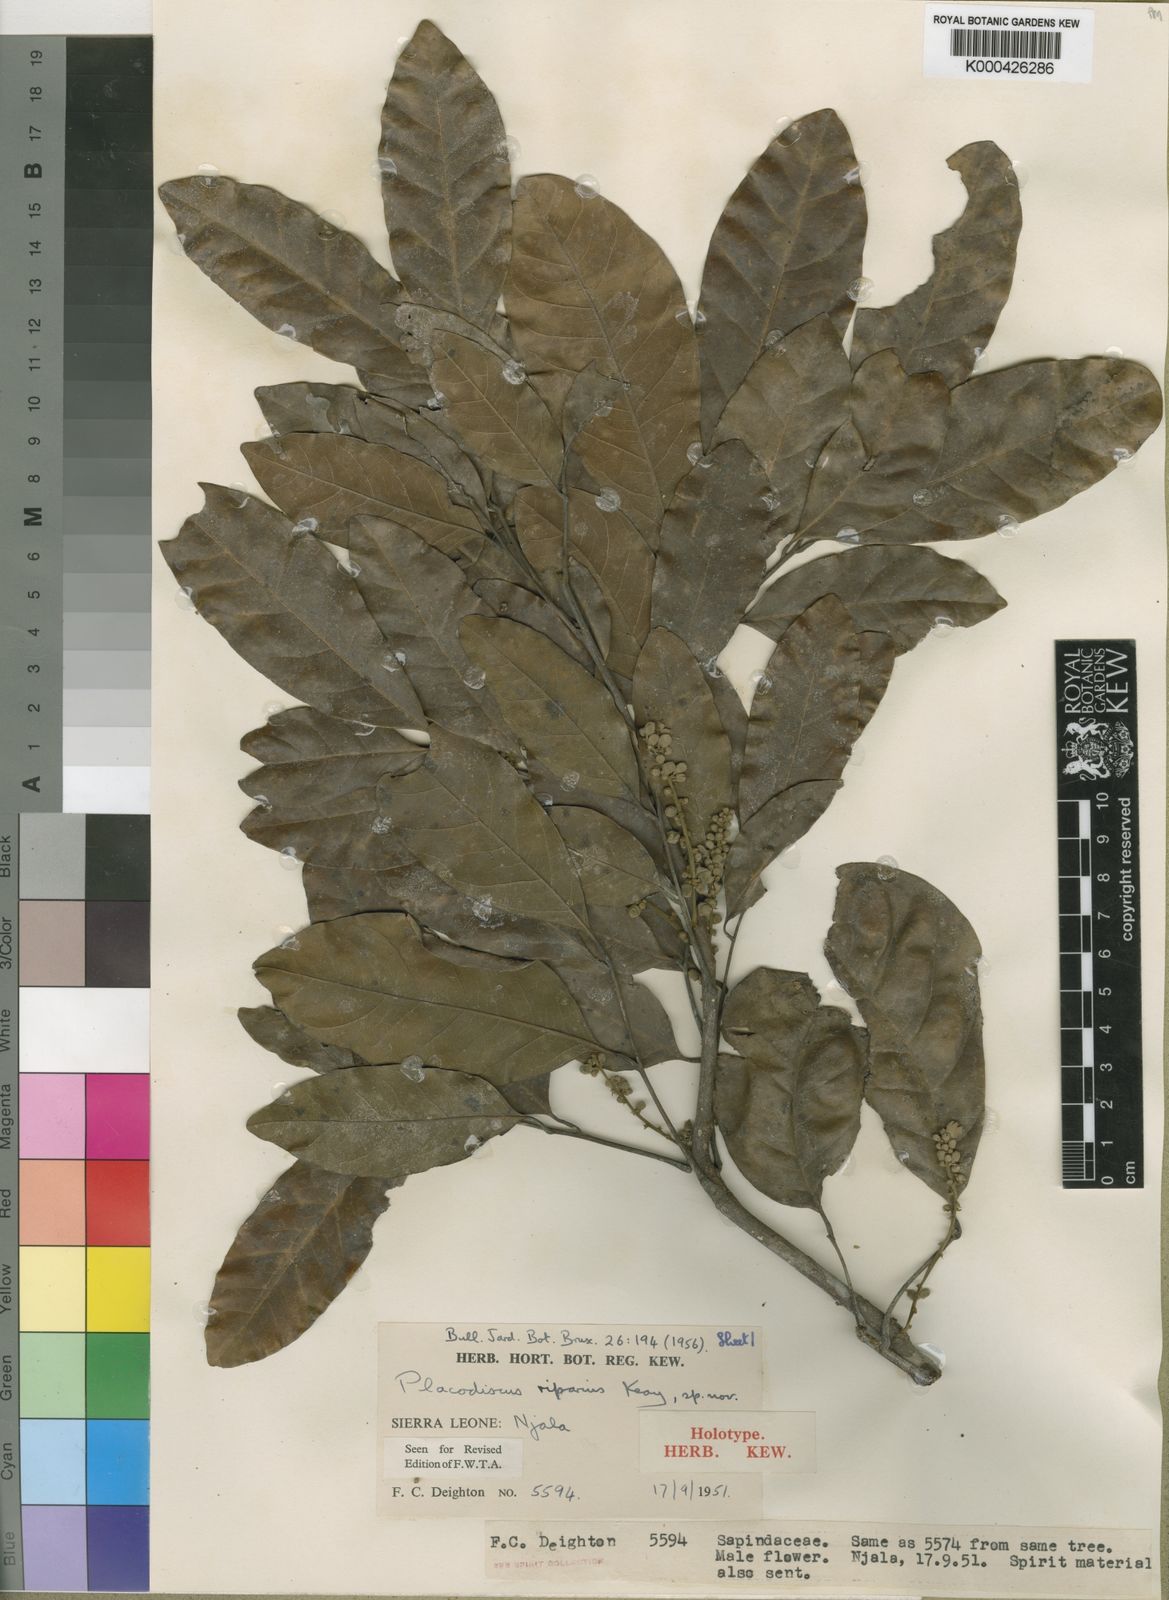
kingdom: Plantae
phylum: Tracheophyta
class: Magnoliopsida
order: Sapindales
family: Sapindaceae
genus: Placodiscus
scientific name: Placodiscus riparius
